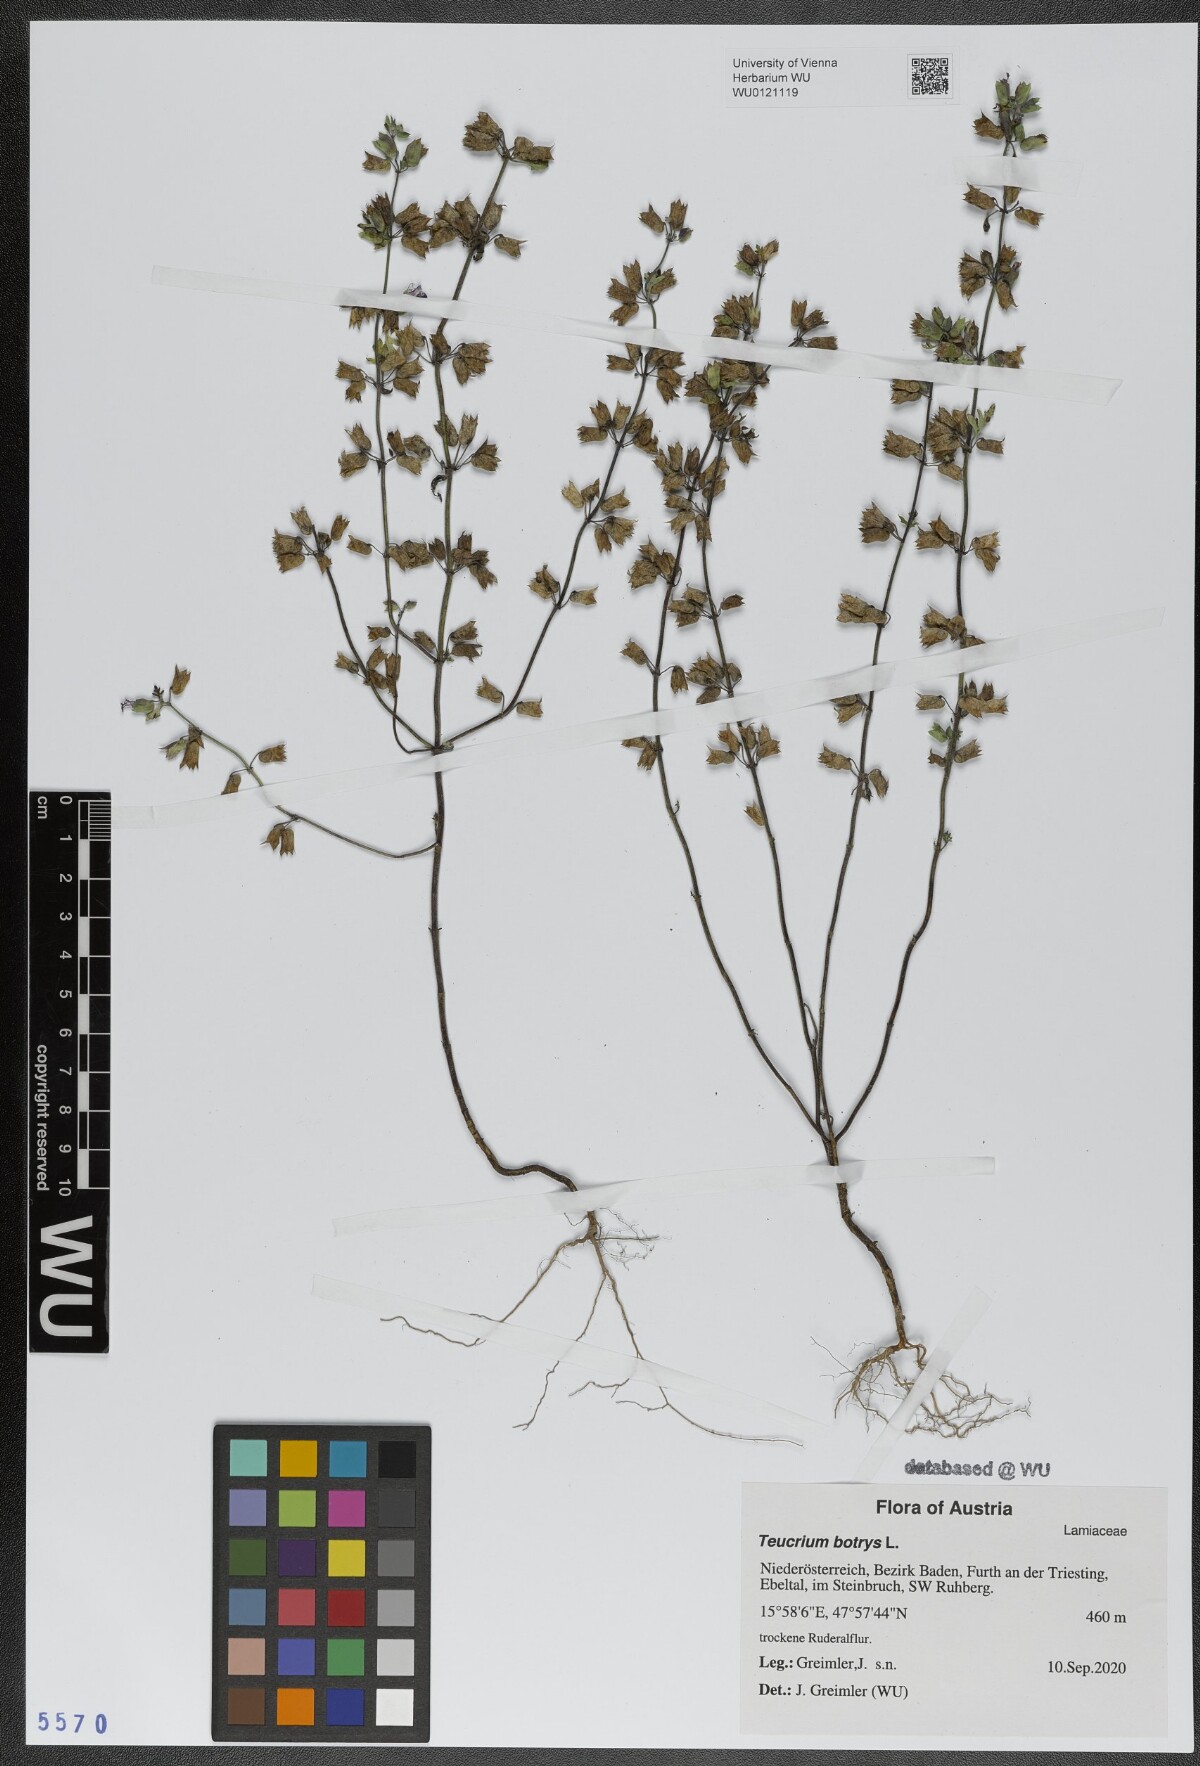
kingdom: Plantae
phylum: Tracheophyta
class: Magnoliopsida
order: Lamiales
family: Lamiaceae
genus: Teucrium
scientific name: Teucrium botrys
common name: Cut-leaved germander
